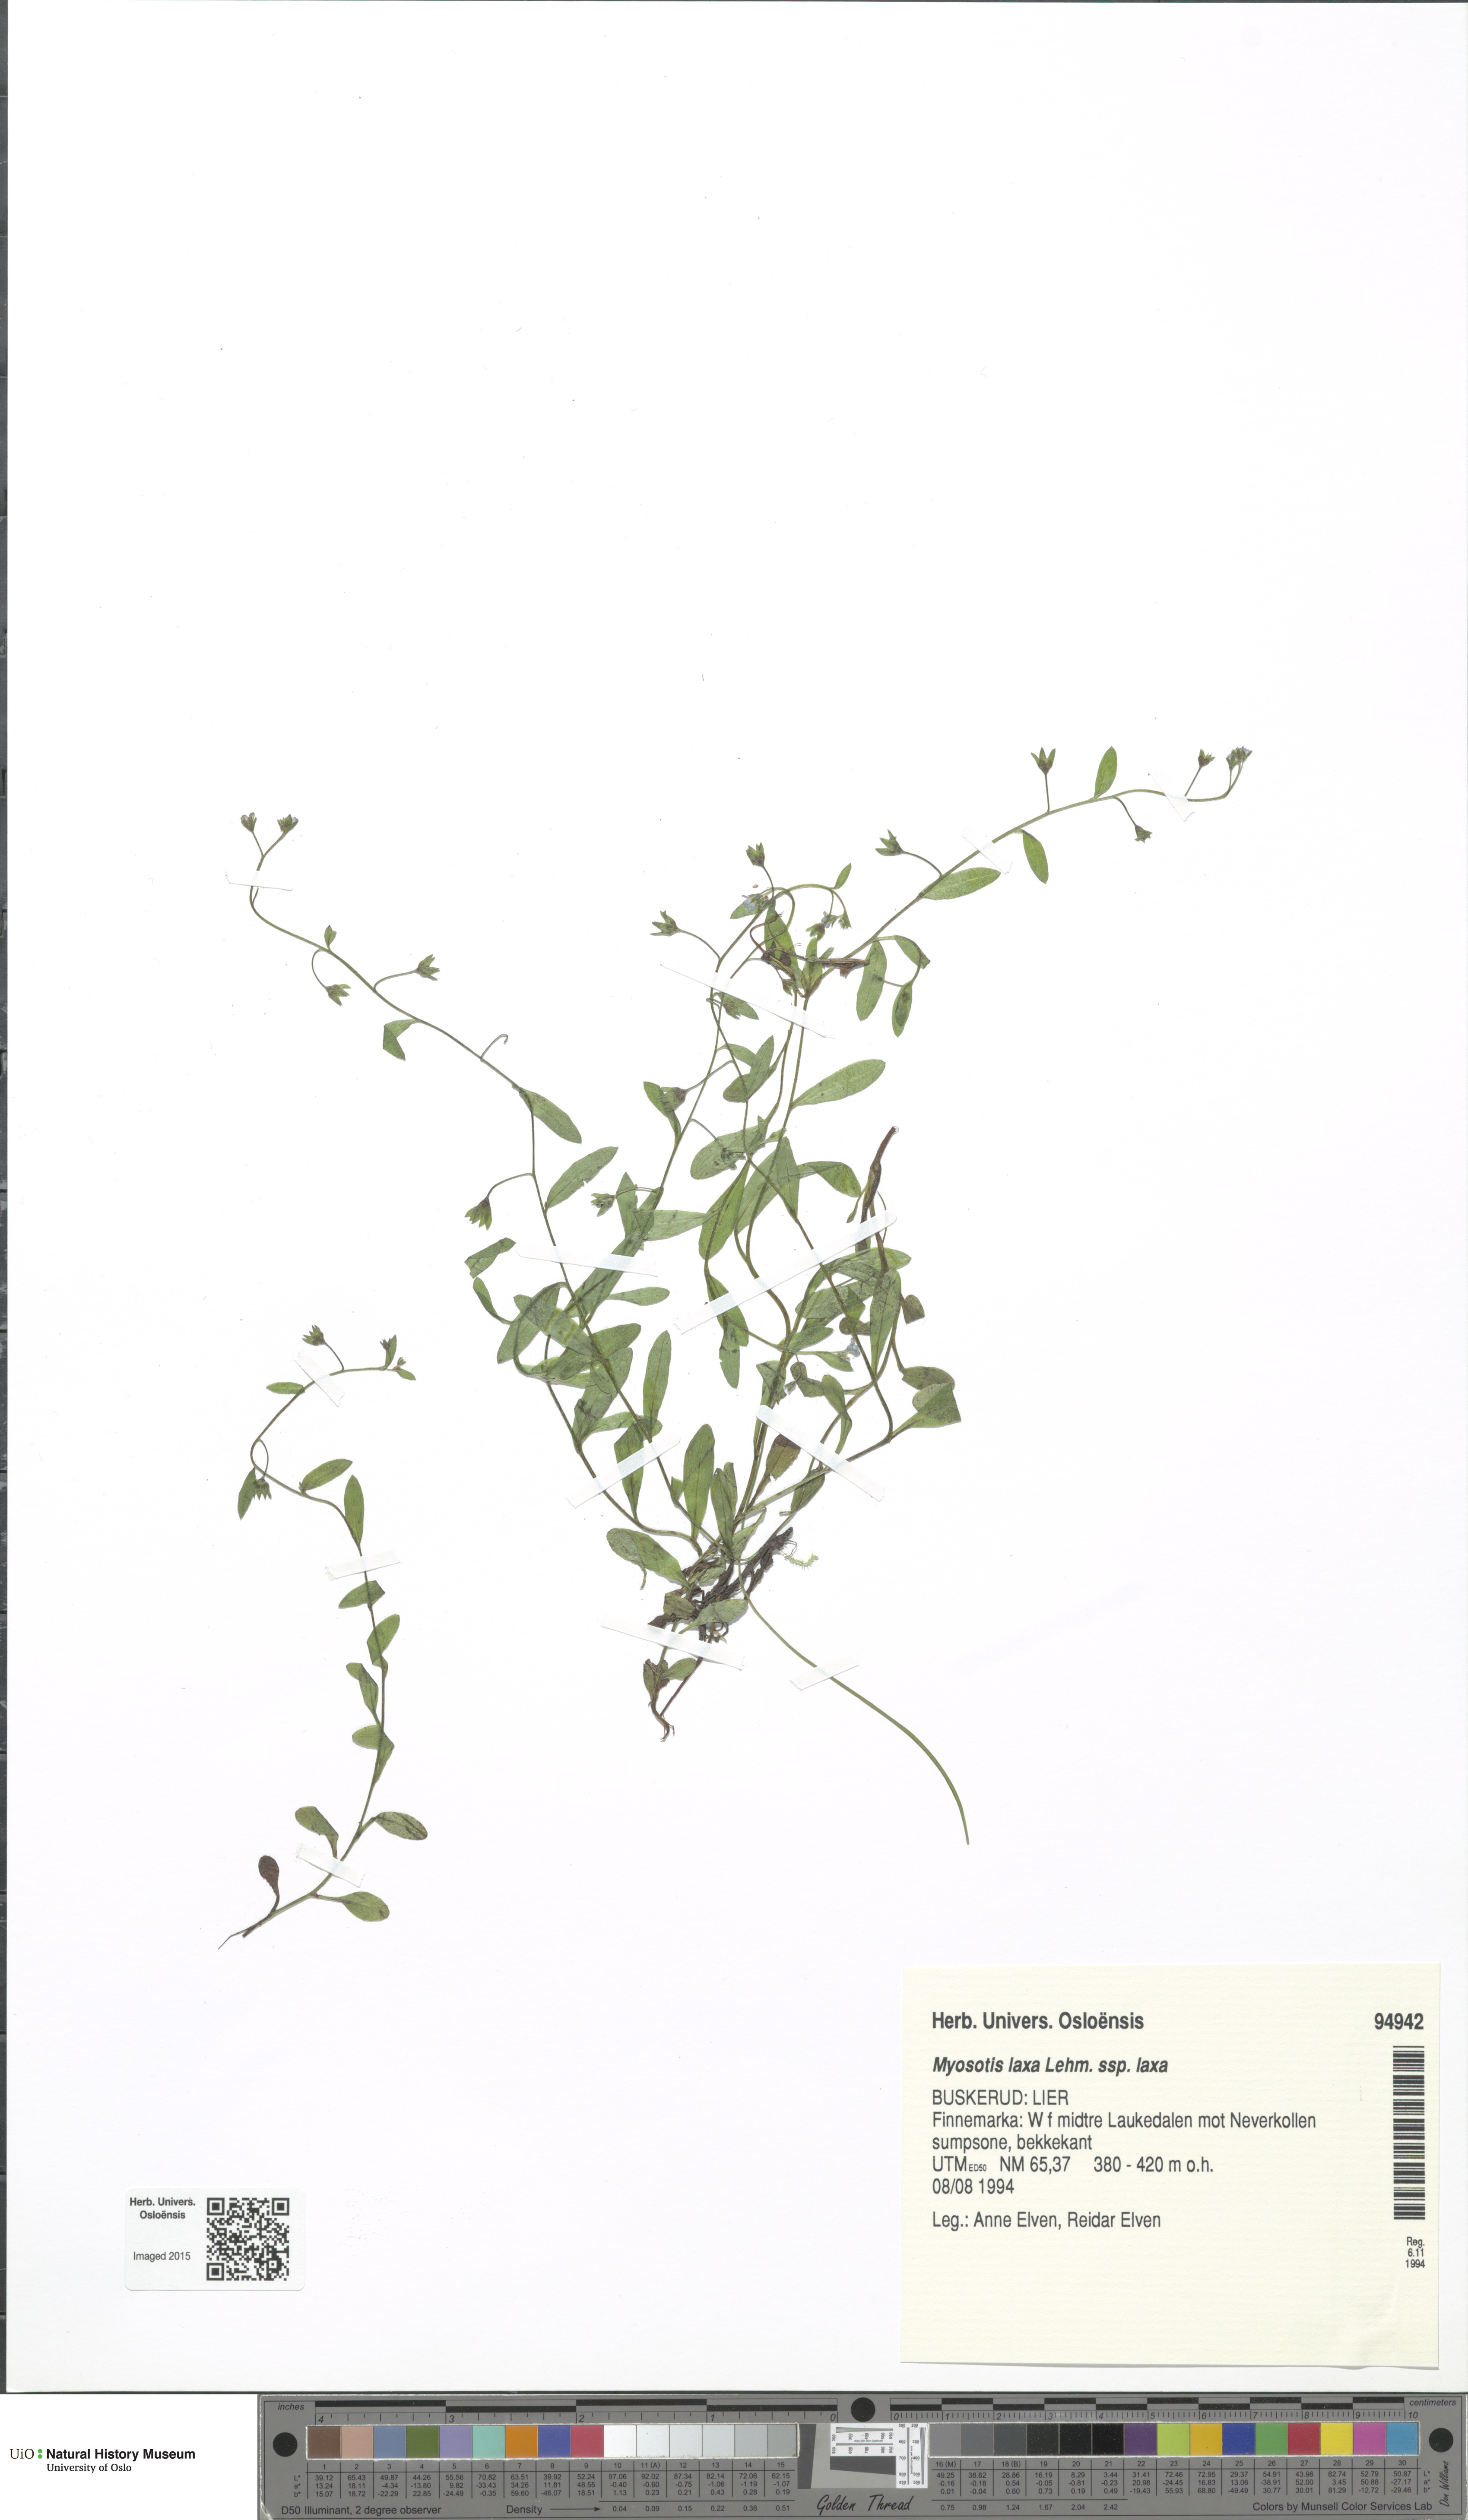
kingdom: Plantae
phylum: Tracheophyta
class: Magnoliopsida
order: Boraginales
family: Boraginaceae
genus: Myosotis
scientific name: Myosotis laxa
